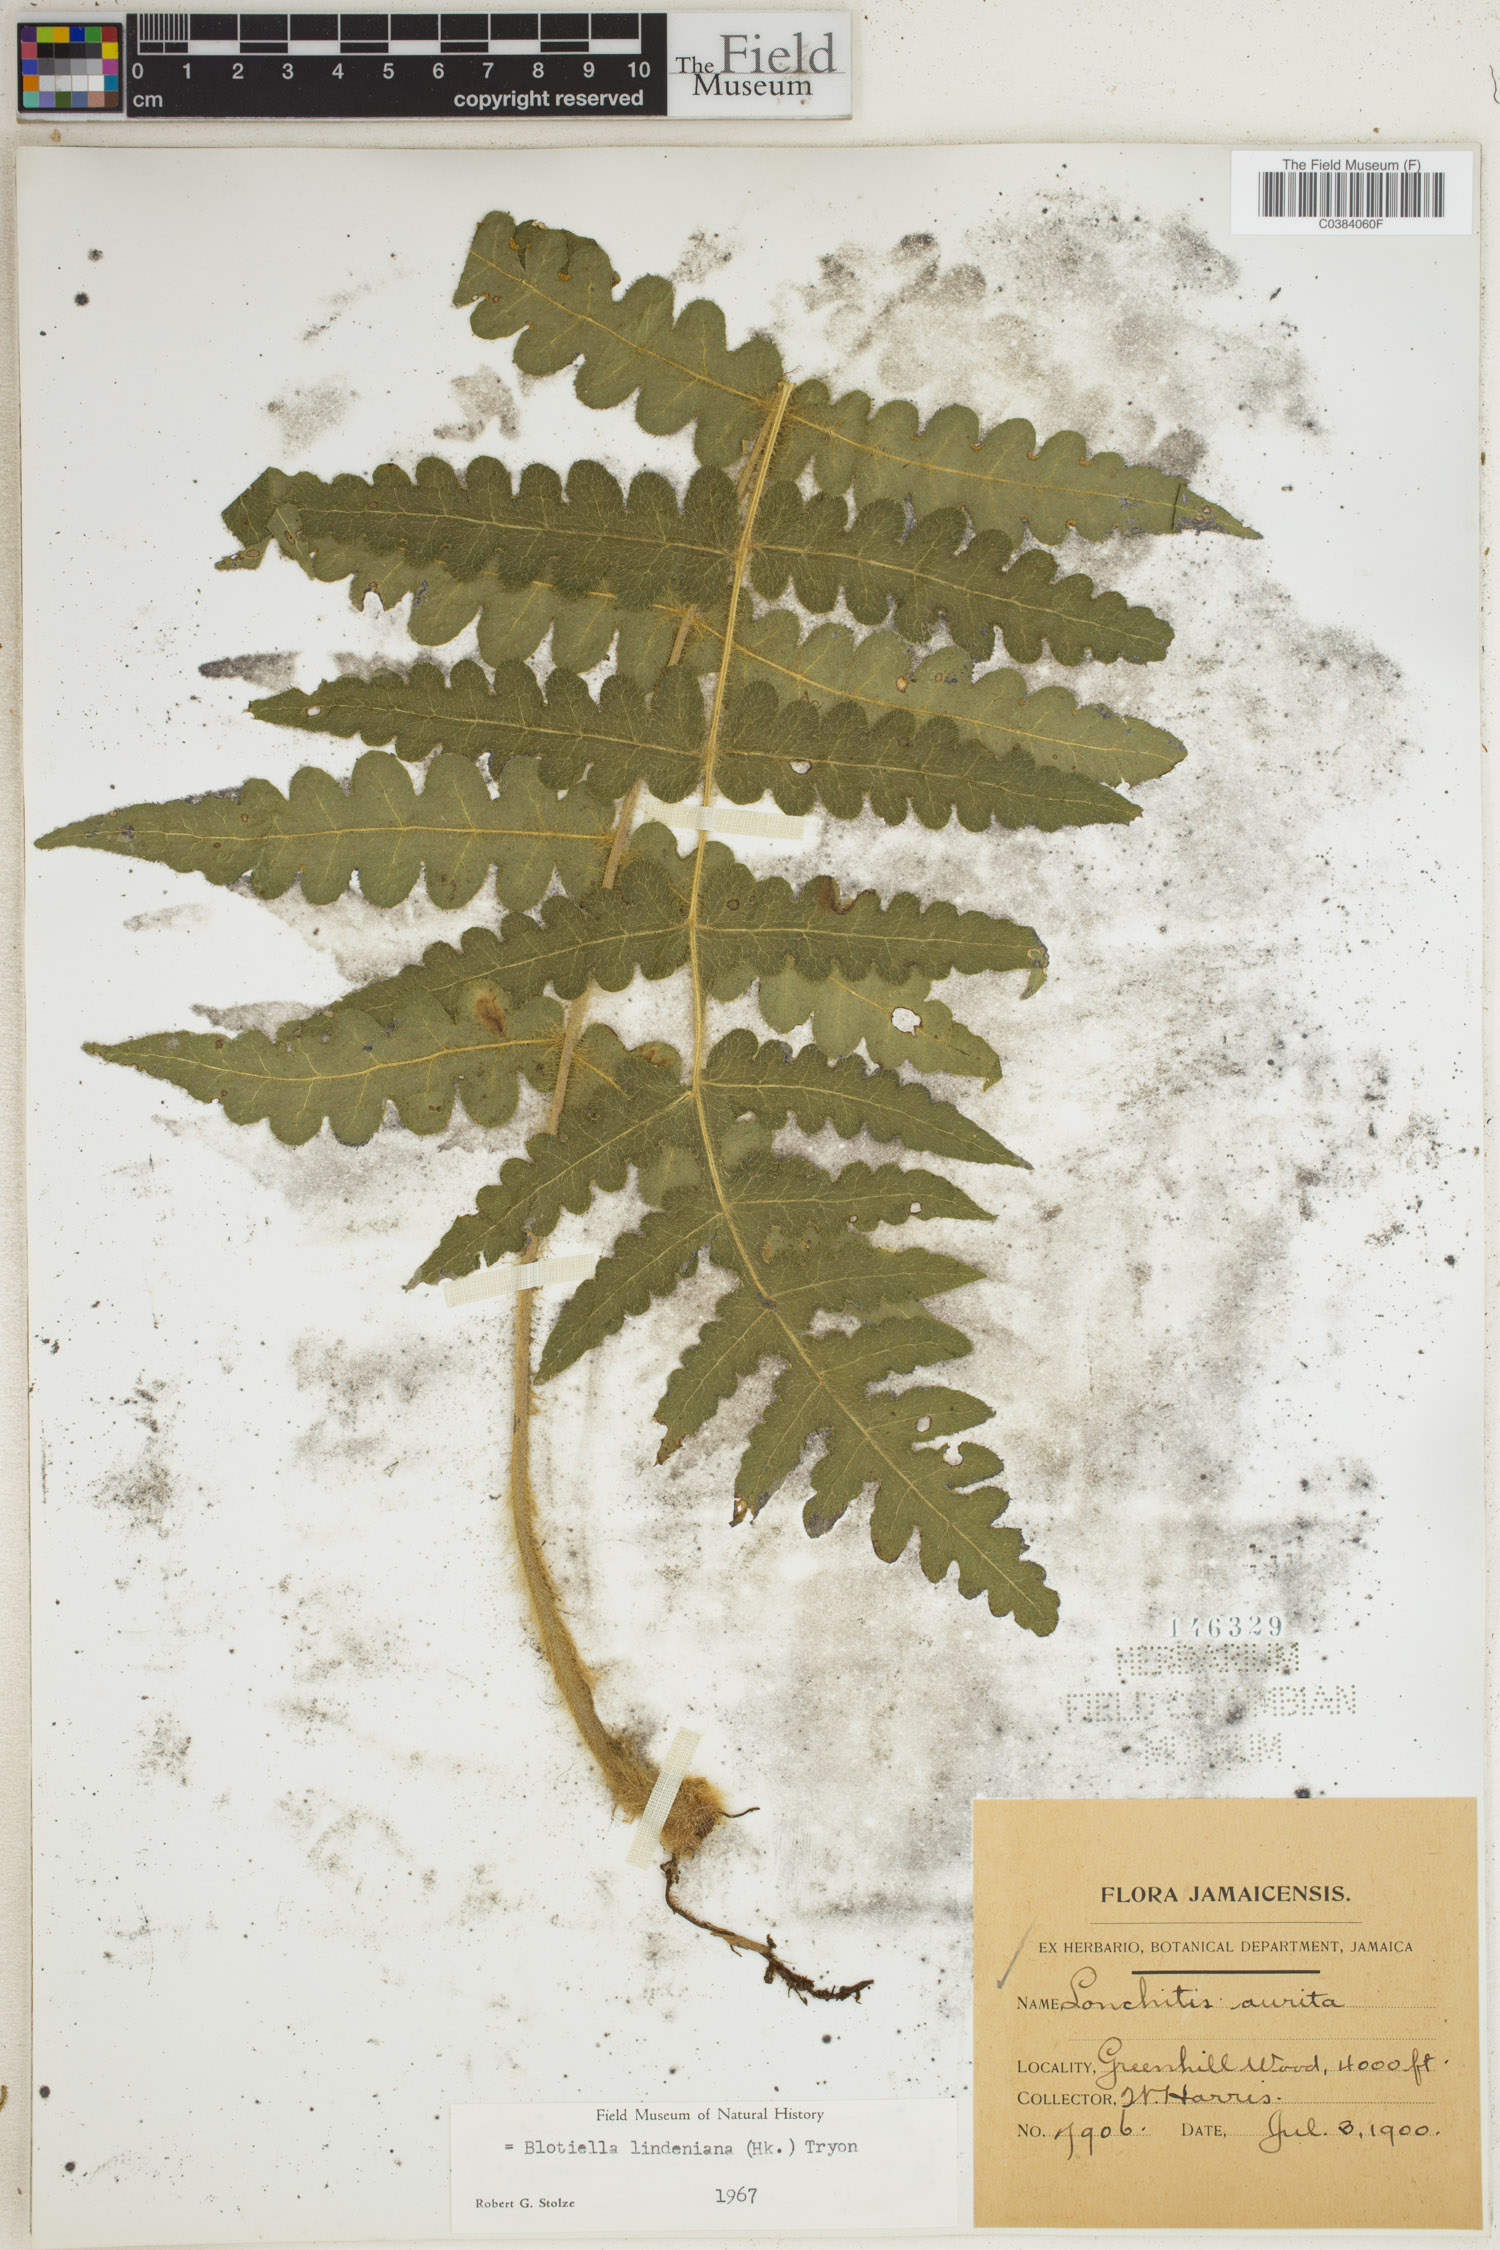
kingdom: Plantae
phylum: Tracheophyta
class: Polypodiopsida
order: Polypodiales
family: Dennstaedtiaceae
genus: Blotiella
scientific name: Blotiella aurita
